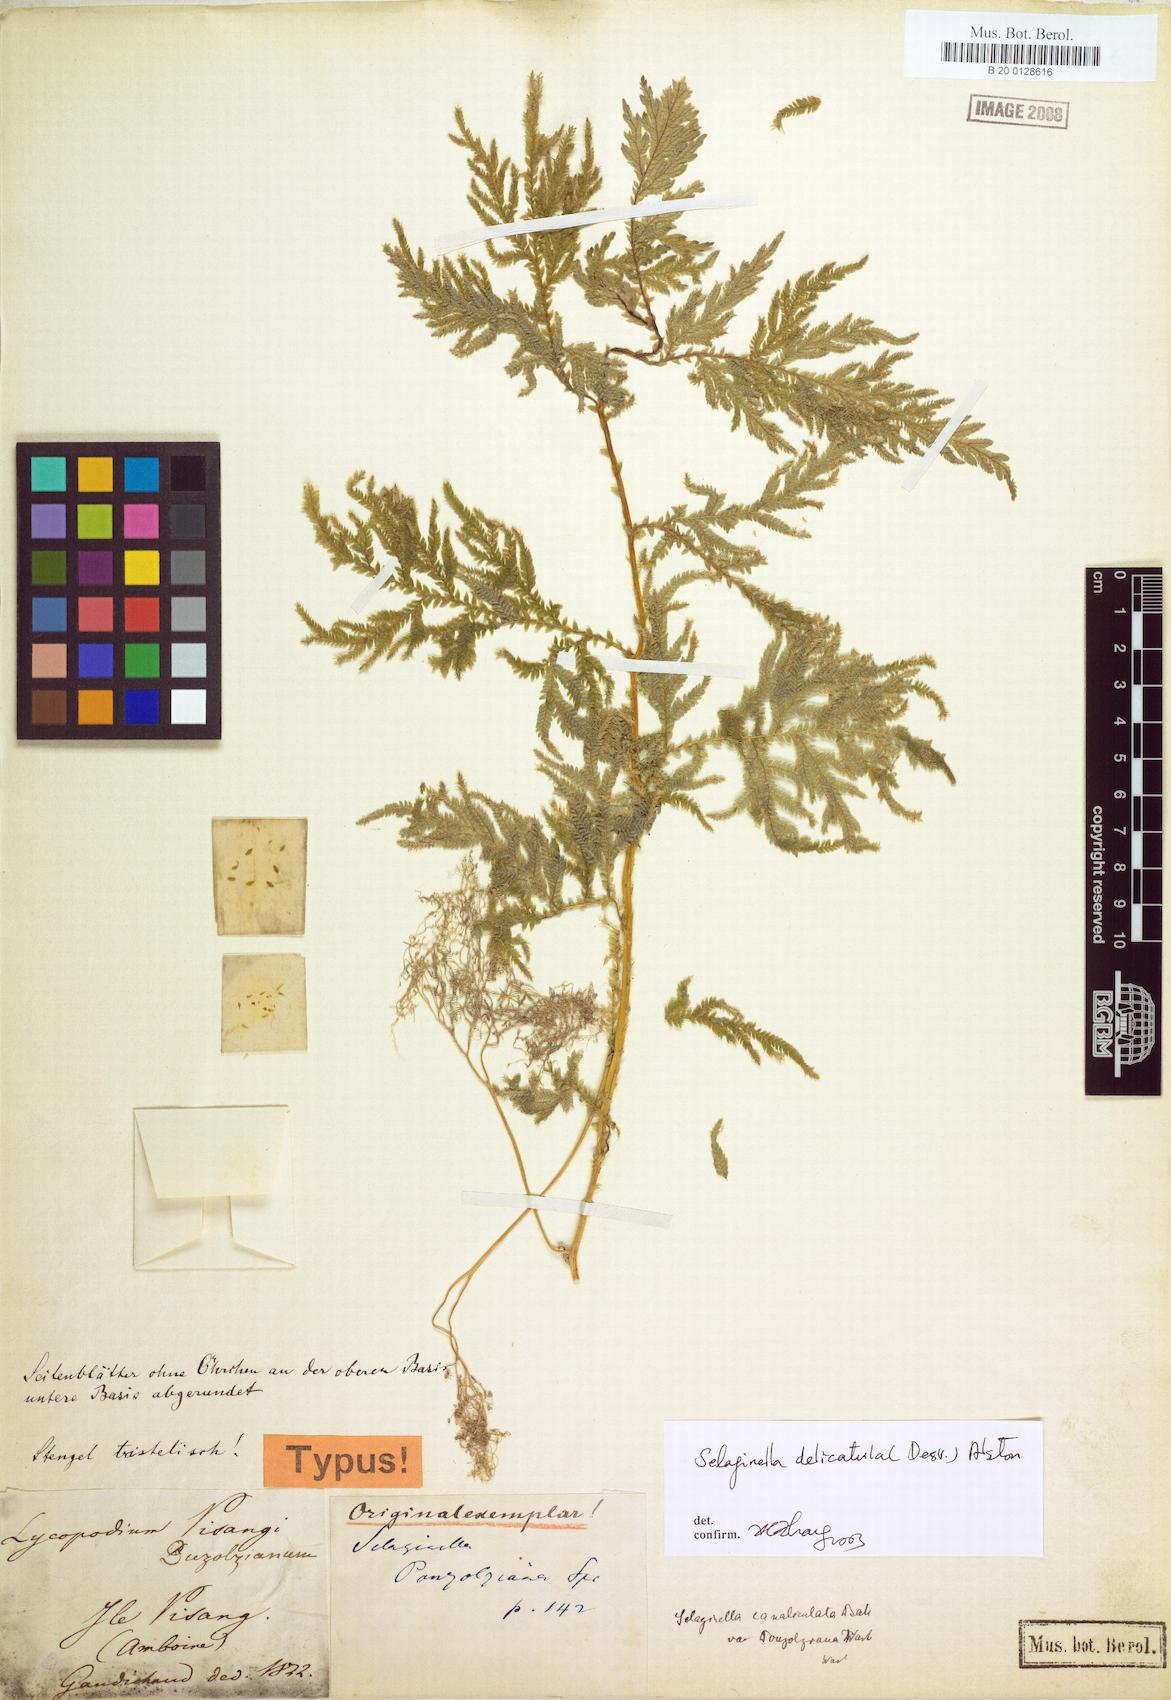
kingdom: Plantae
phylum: Tracheophyta
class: Lycopodiopsida
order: Selaginellales
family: Selaginellaceae
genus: Selaginella
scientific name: Selaginella delicatula
